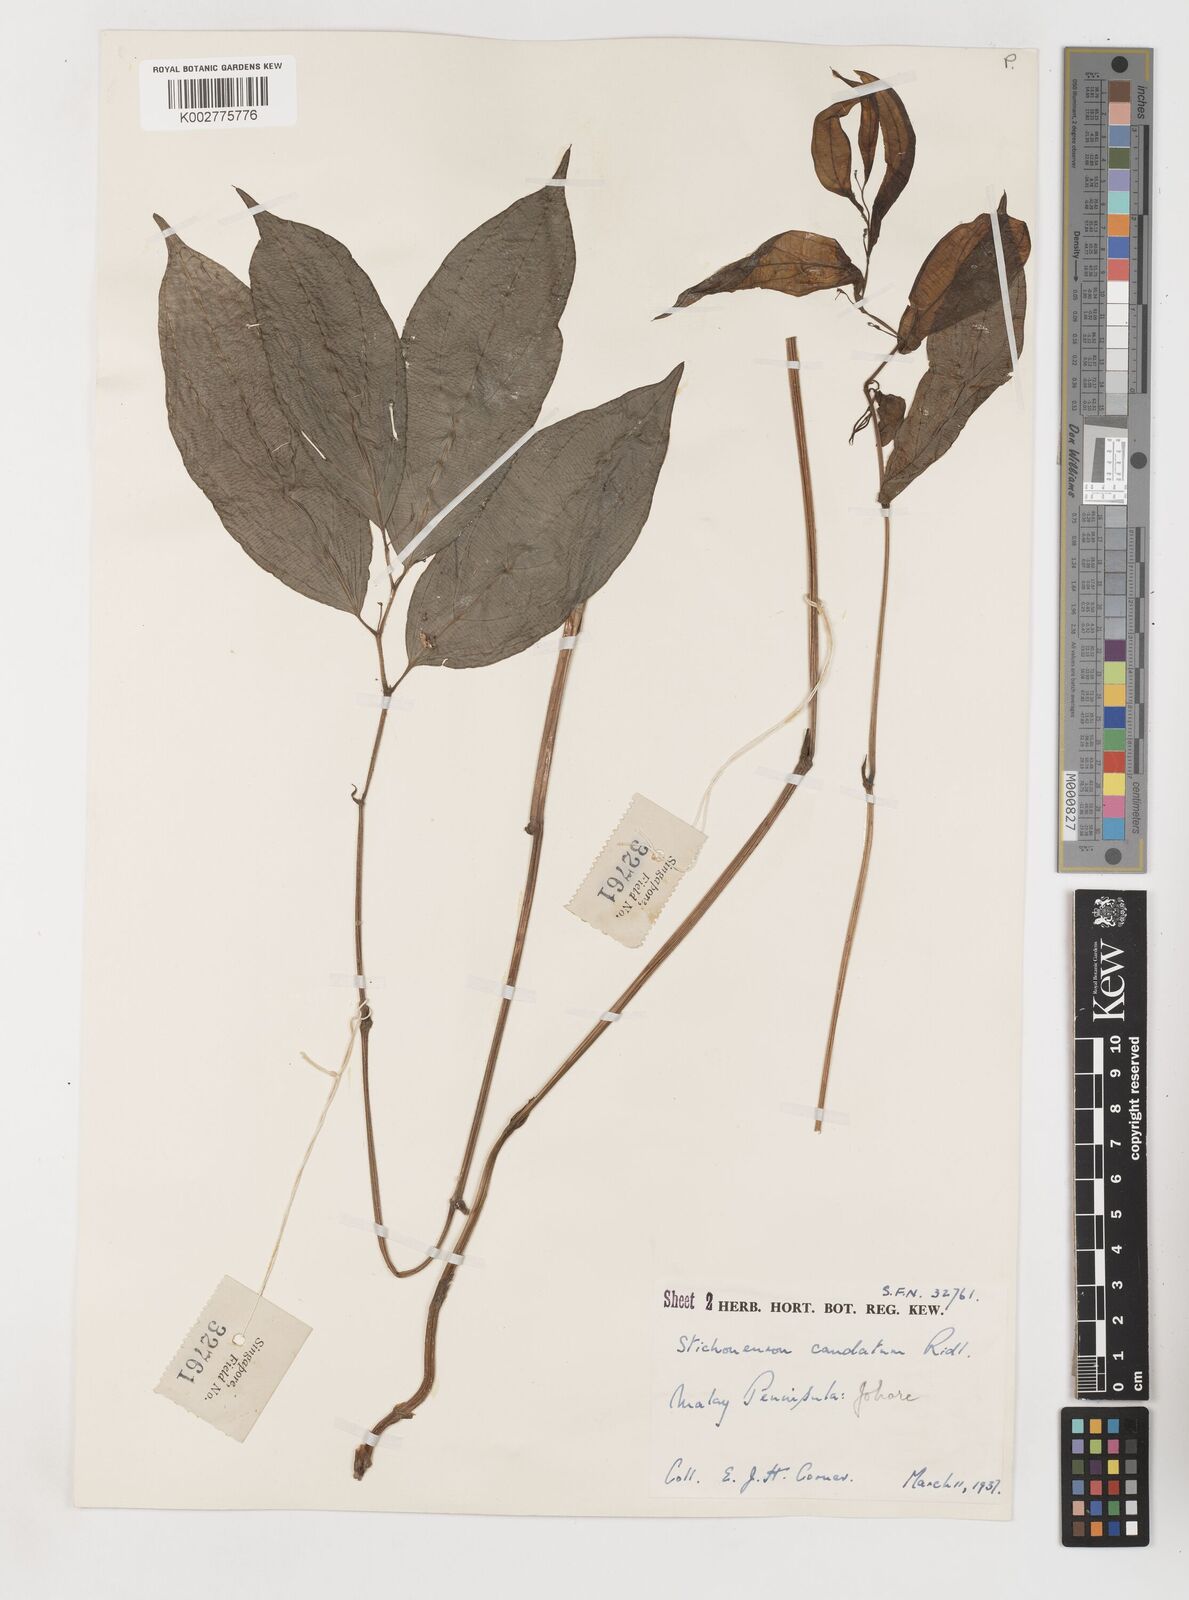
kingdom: Plantae
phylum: Tracheophyta
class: Liliopsida
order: Pandanales
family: Stemonaceae
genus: Stichoneuron
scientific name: Stichoneuron caudatum
